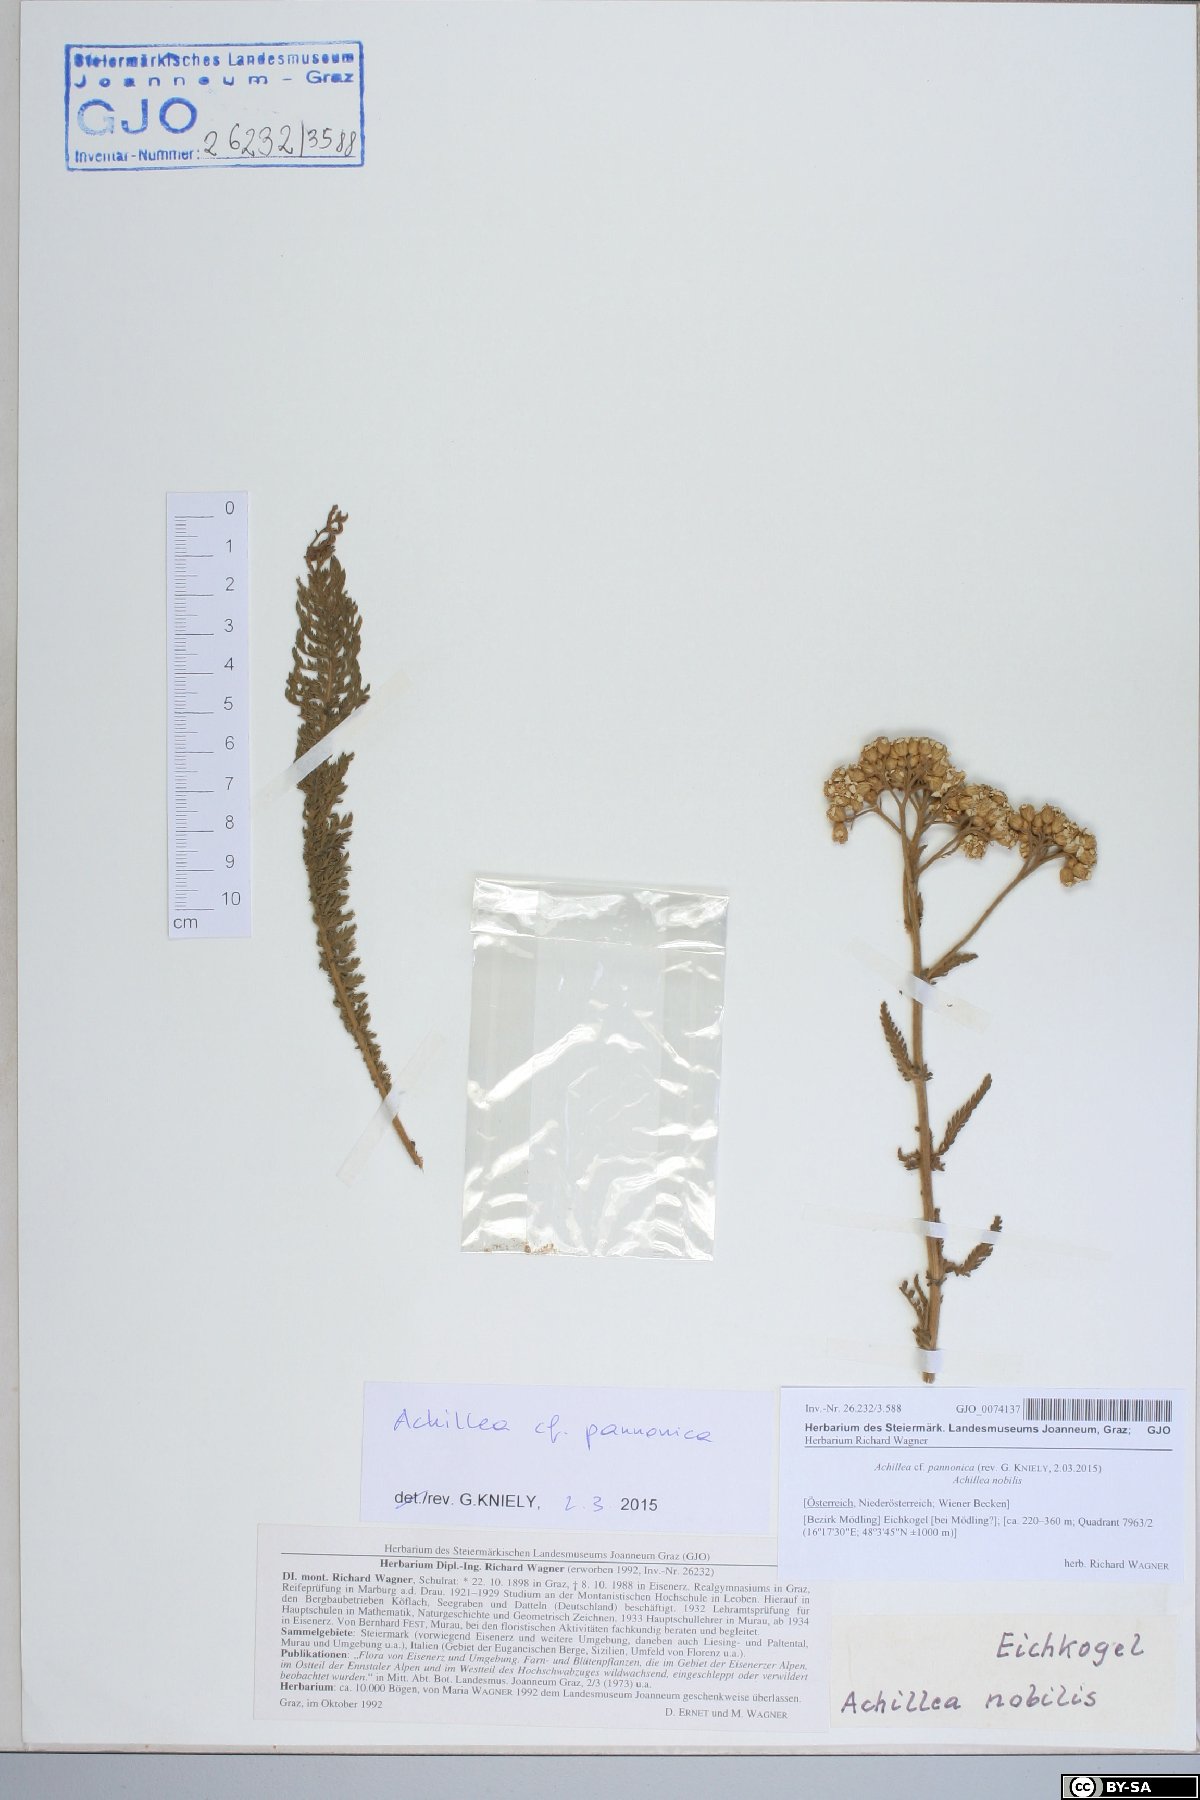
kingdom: Plantae
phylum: Tracheophyta
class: Magnoliopsida
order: Asterales
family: Asteraceae
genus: Achillea
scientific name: Achillea pannonica
